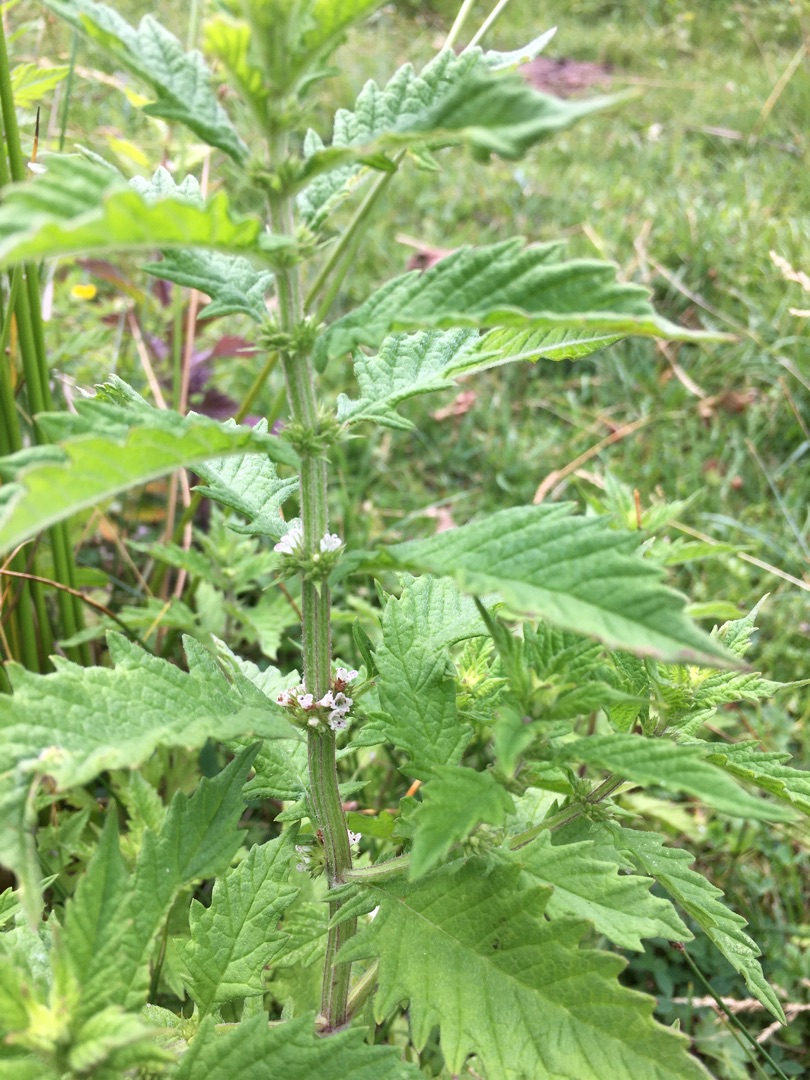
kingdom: Plantae
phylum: Tracheophyta
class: Magnoliopsida
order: Lamiales
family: Lamiaceae
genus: Lycopus
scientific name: Lycopus europaeus
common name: Sværtevæld
